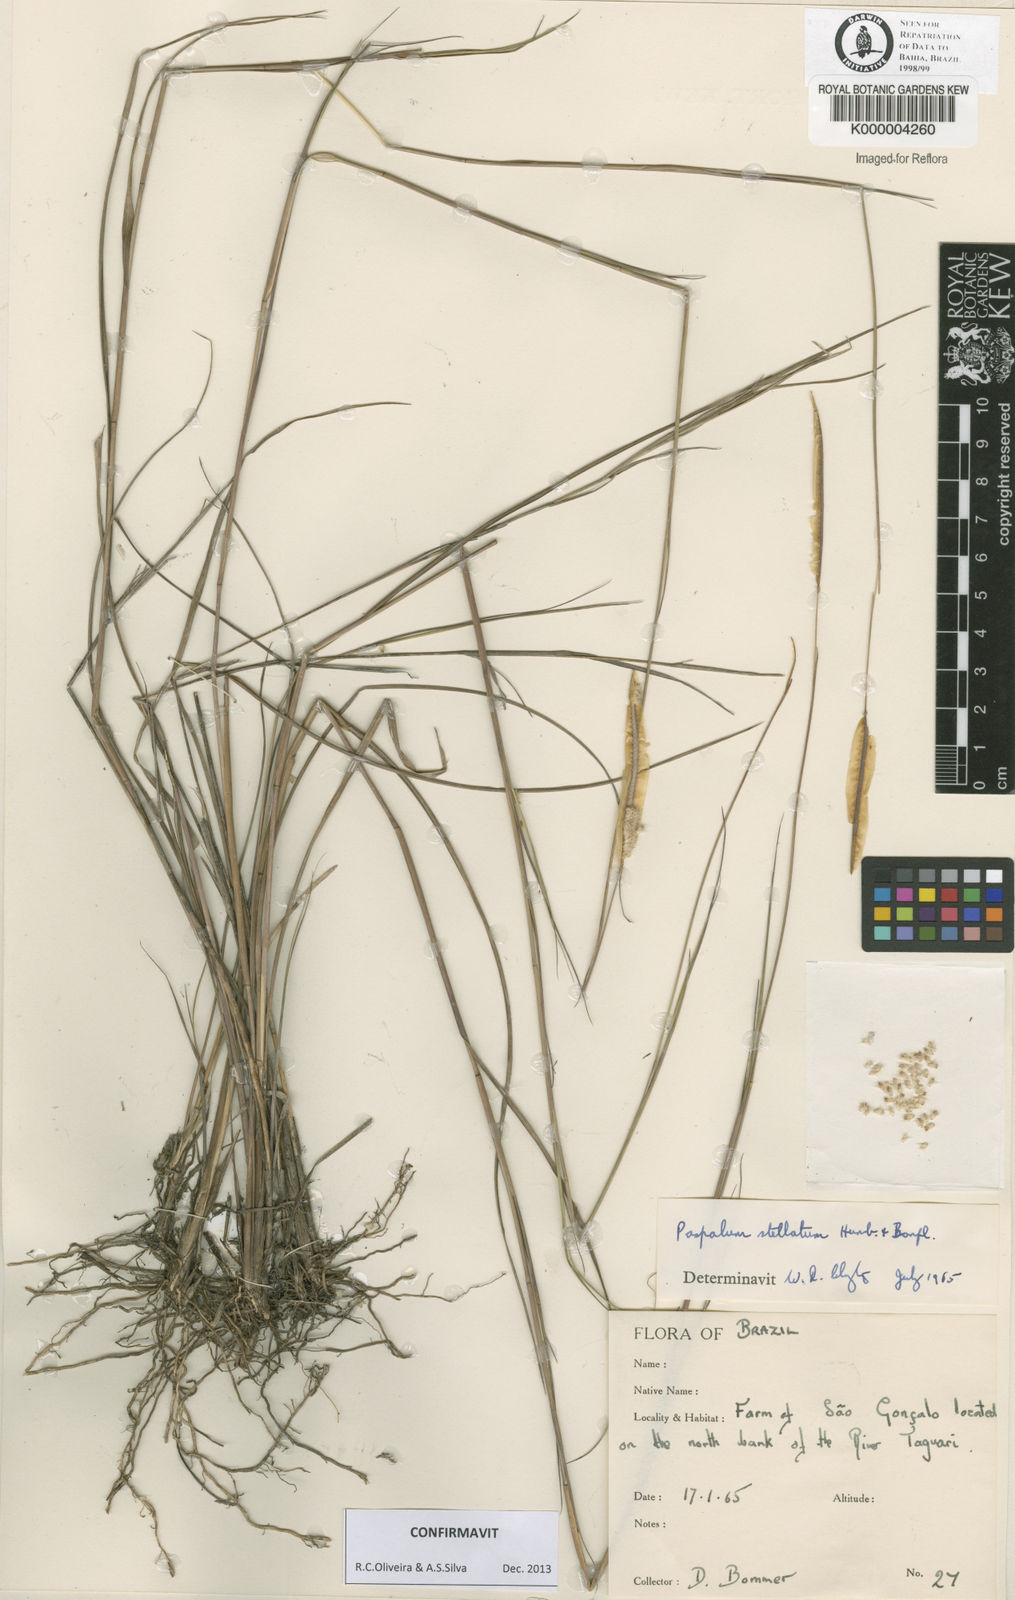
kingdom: Plantae
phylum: Tracheophyta
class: Liliopsida
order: Poales
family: Poaceae
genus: Paspalum
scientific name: Paspalum
